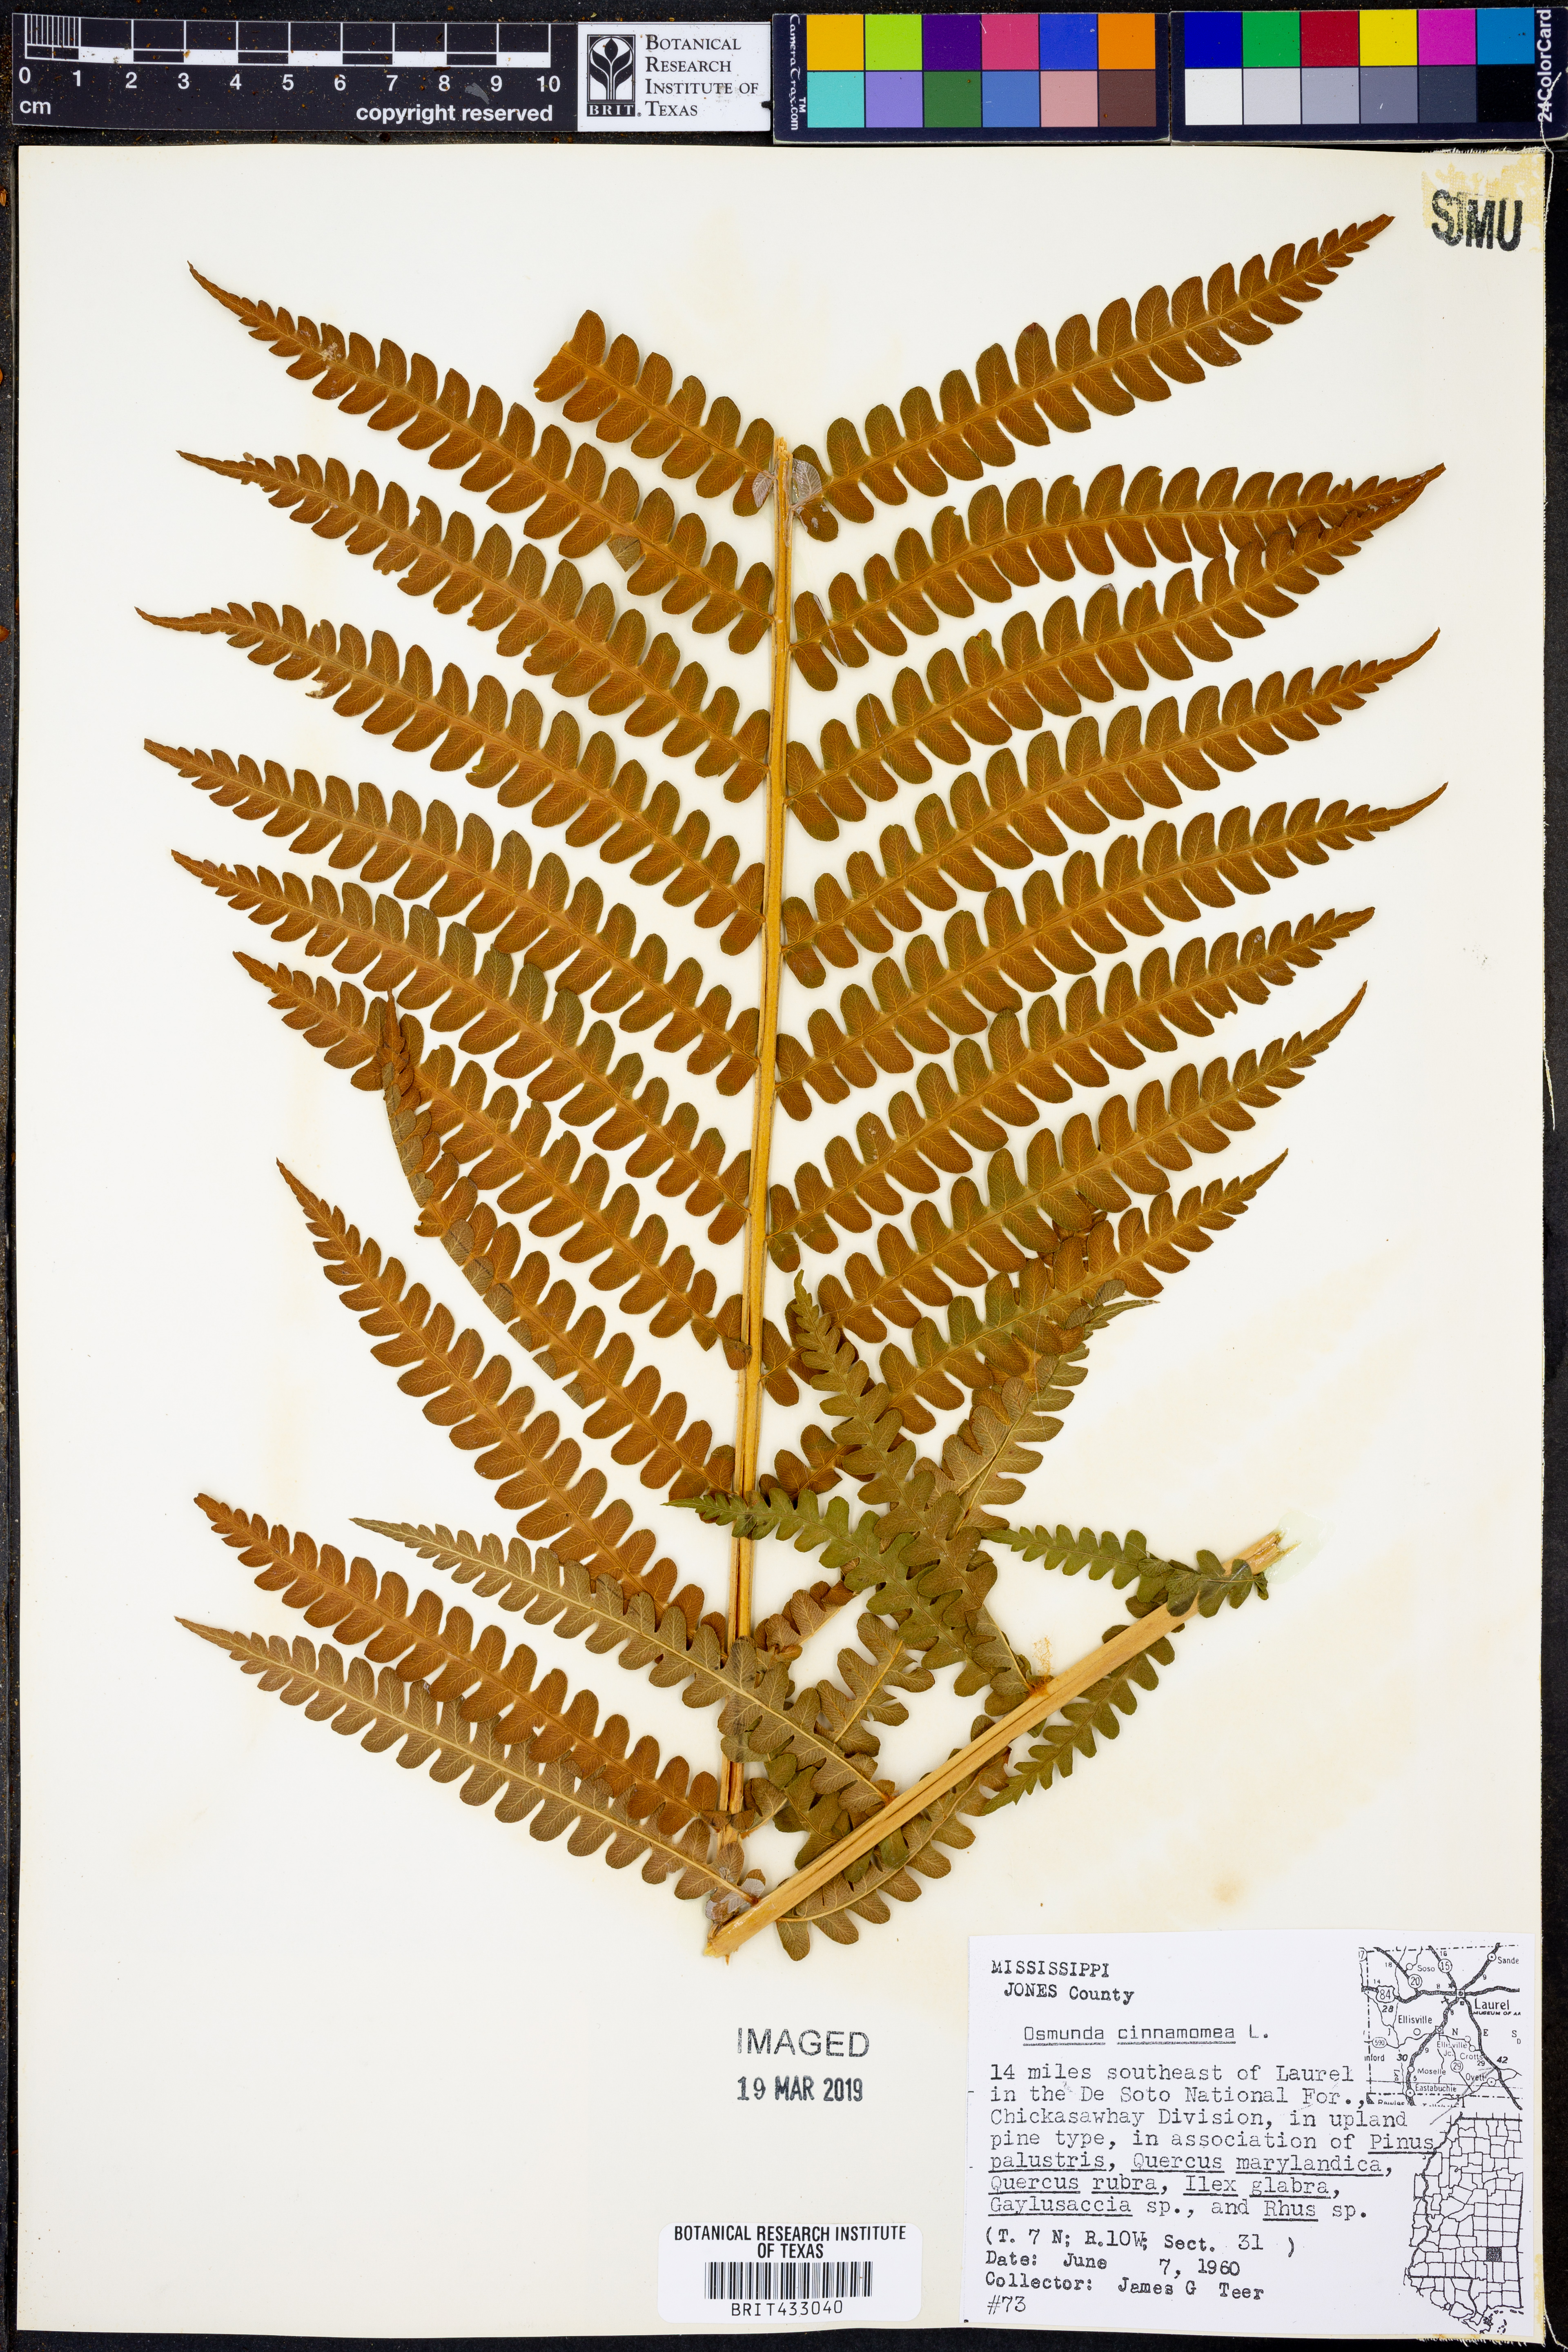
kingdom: Plantae
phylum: Tracheophyta
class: Polypodiopsida
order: Osmundales
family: Osmundaceae
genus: Osmundastrum
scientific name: Osmundastrum cinnamomeum
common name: Cinnamon fern
